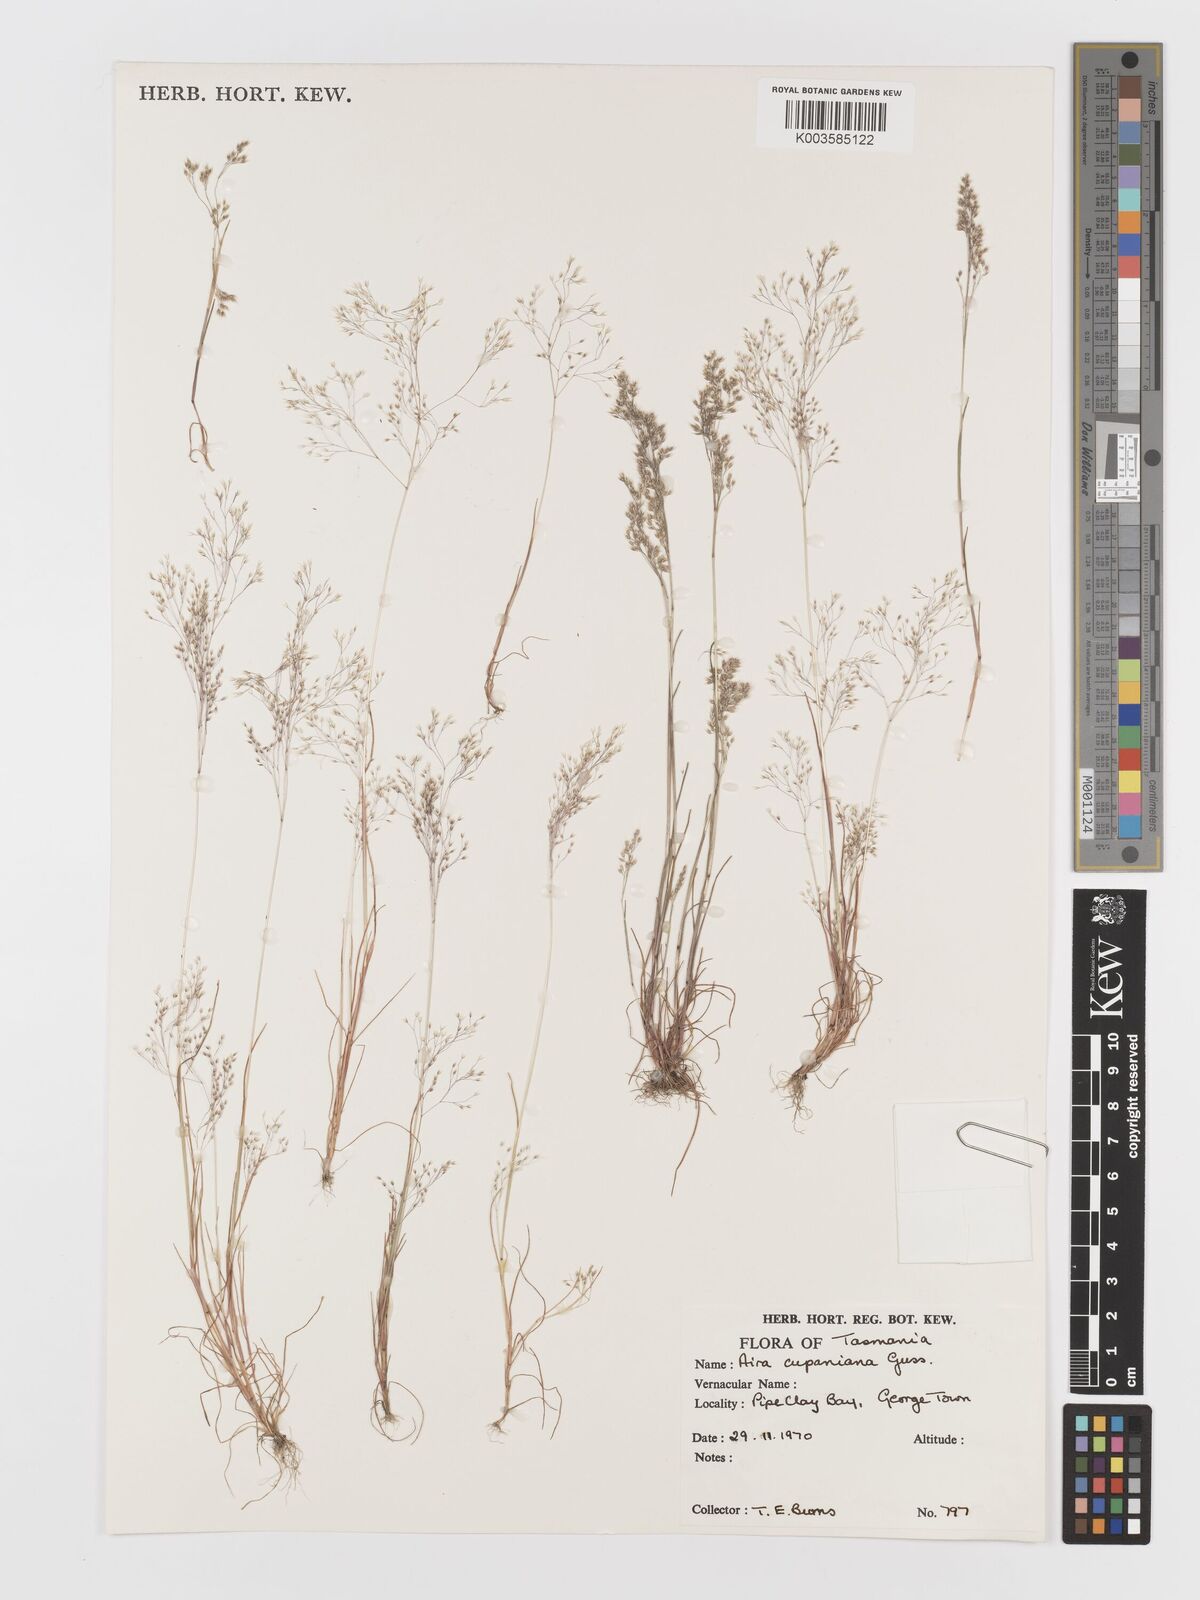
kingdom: Plantae
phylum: Tracheophyta
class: Liliopsida
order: Poales
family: Poaceae
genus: Aira
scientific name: Aira cupaniana
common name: Silver hairgrass
